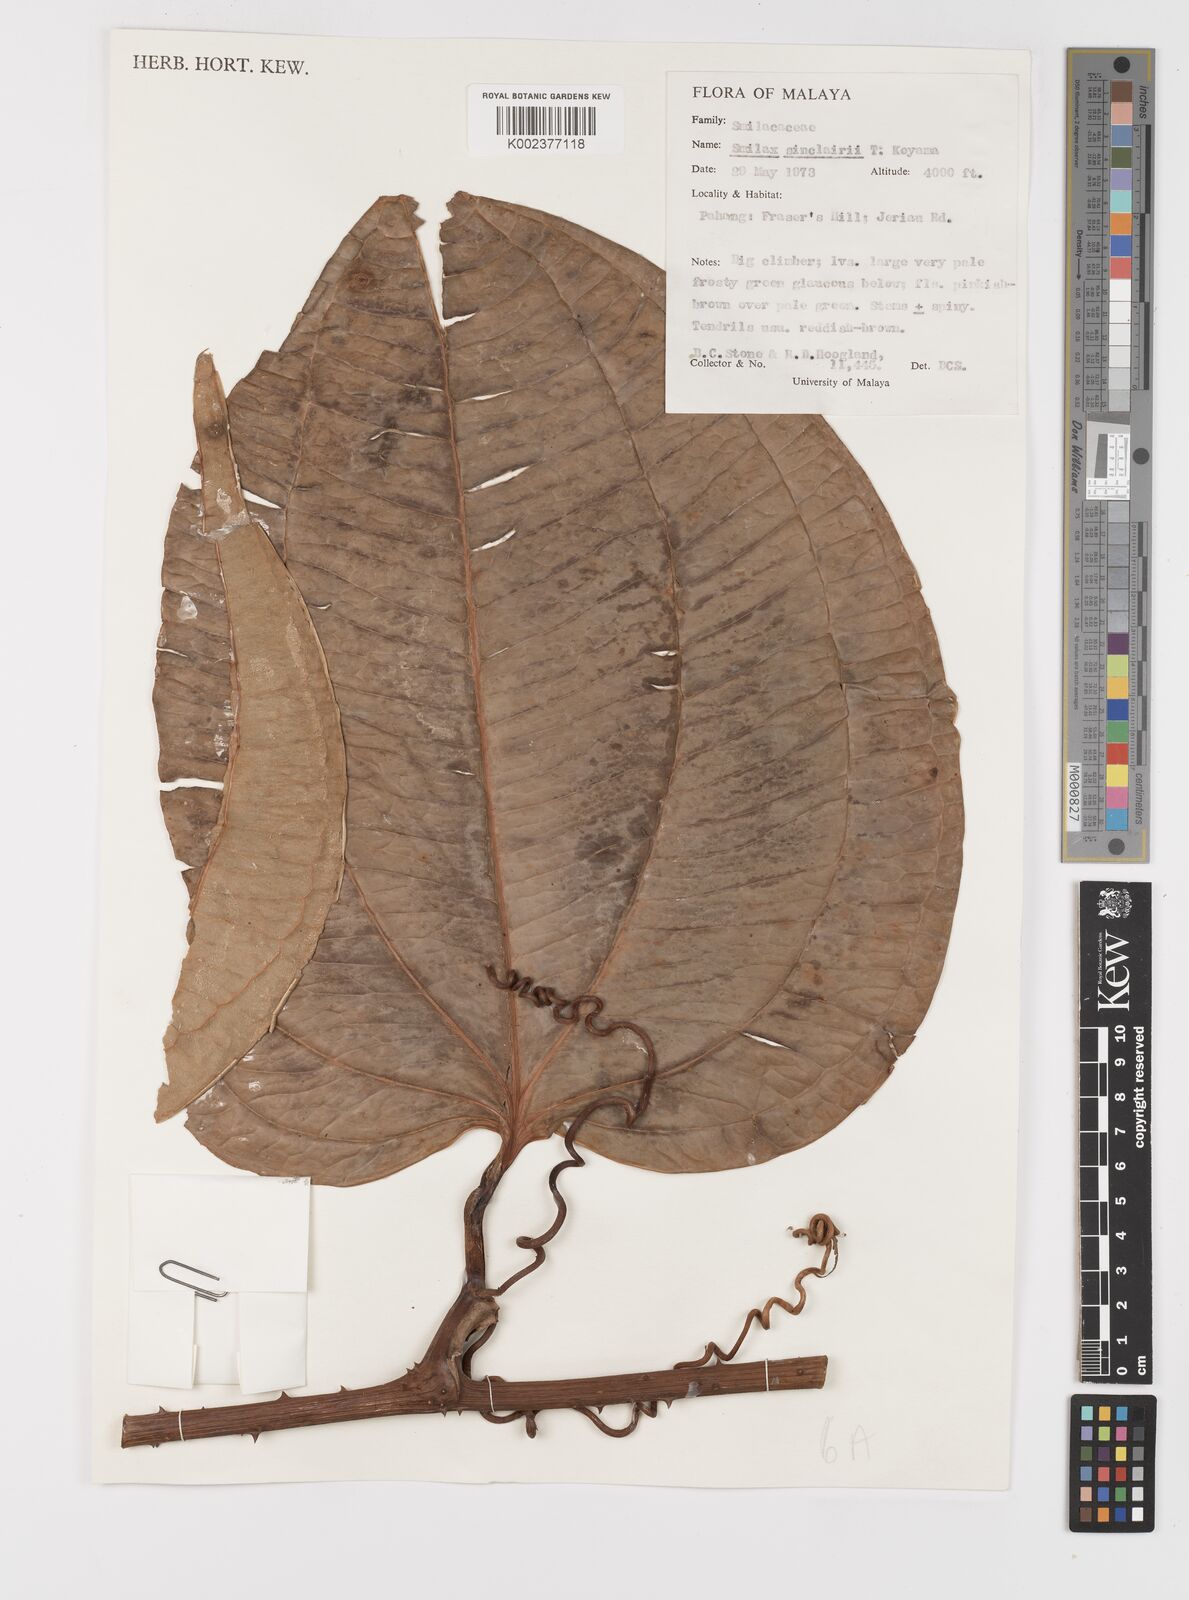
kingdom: Plantae
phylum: Tracheophyta
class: Liliopsida
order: Liliales
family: Smilacaceae
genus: Smilax
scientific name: Smilax sinclairii
